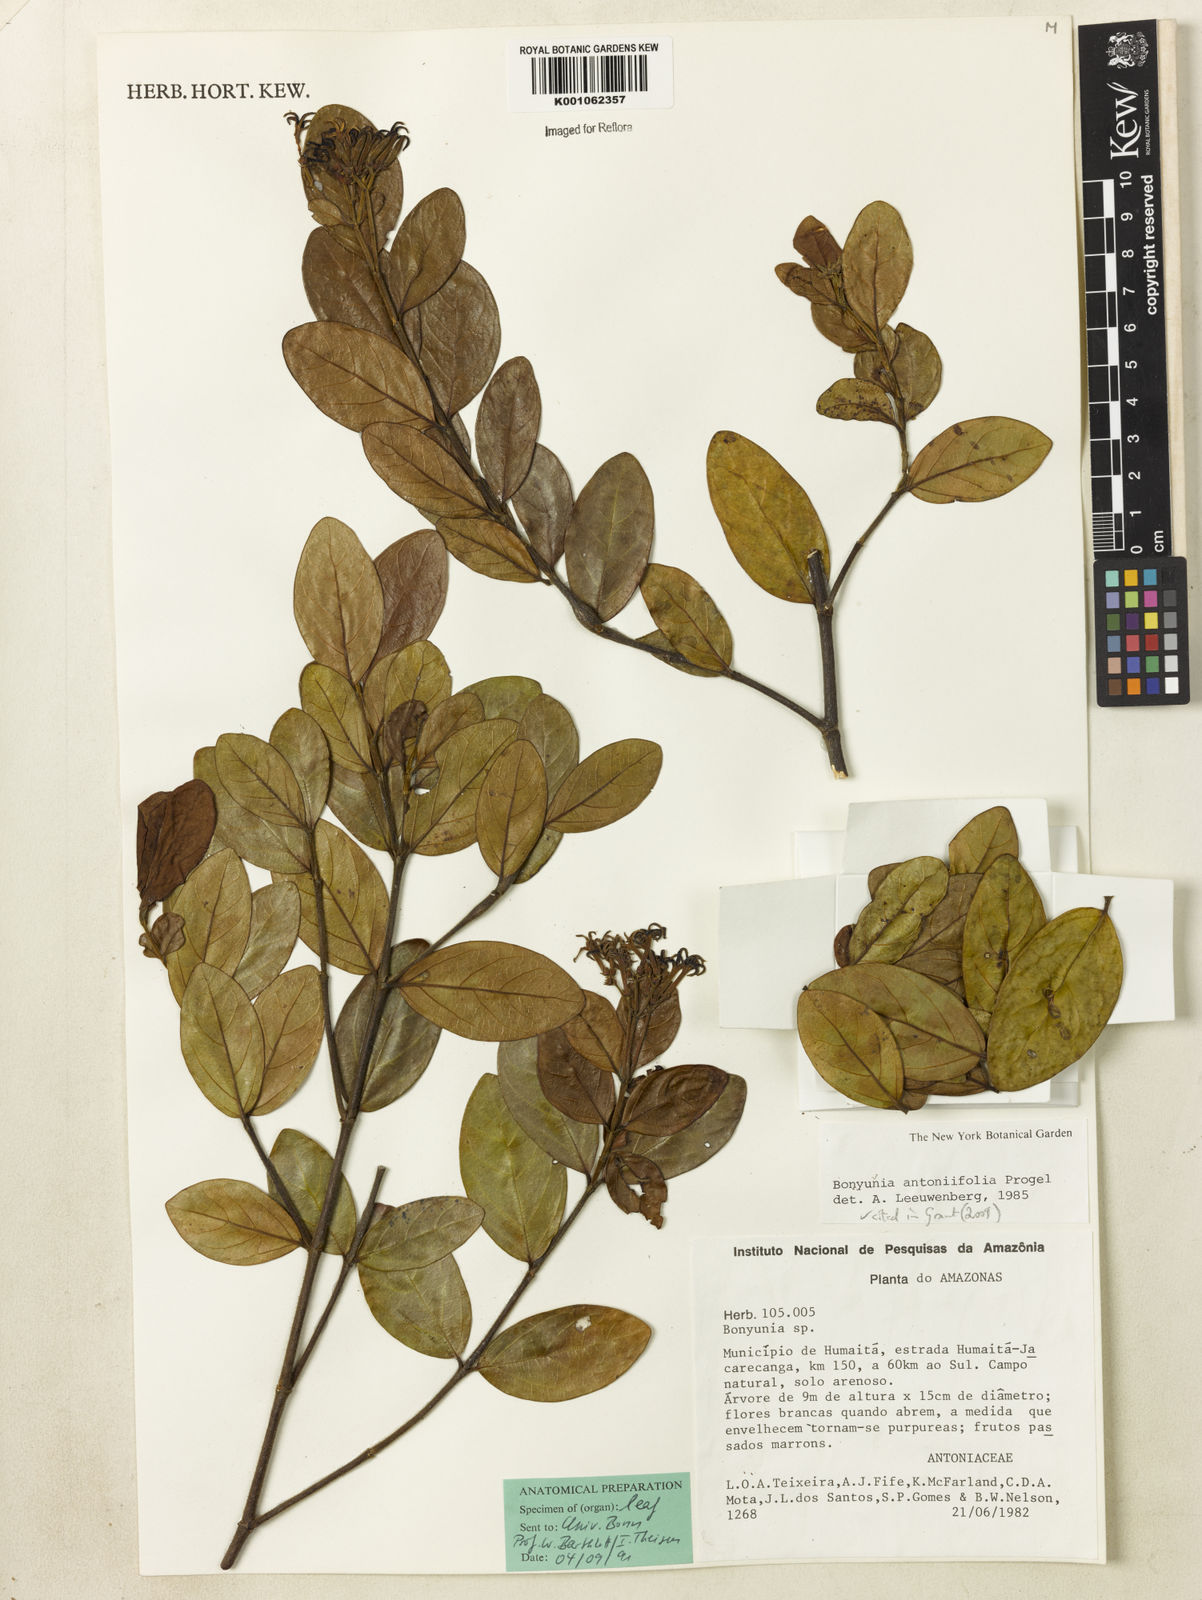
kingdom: Plantae
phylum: Tracheophyta
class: Magnoliopsida
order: Gentianales
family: Loganiaceae
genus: Bonyunia
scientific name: Bonyunia antoniifolia
